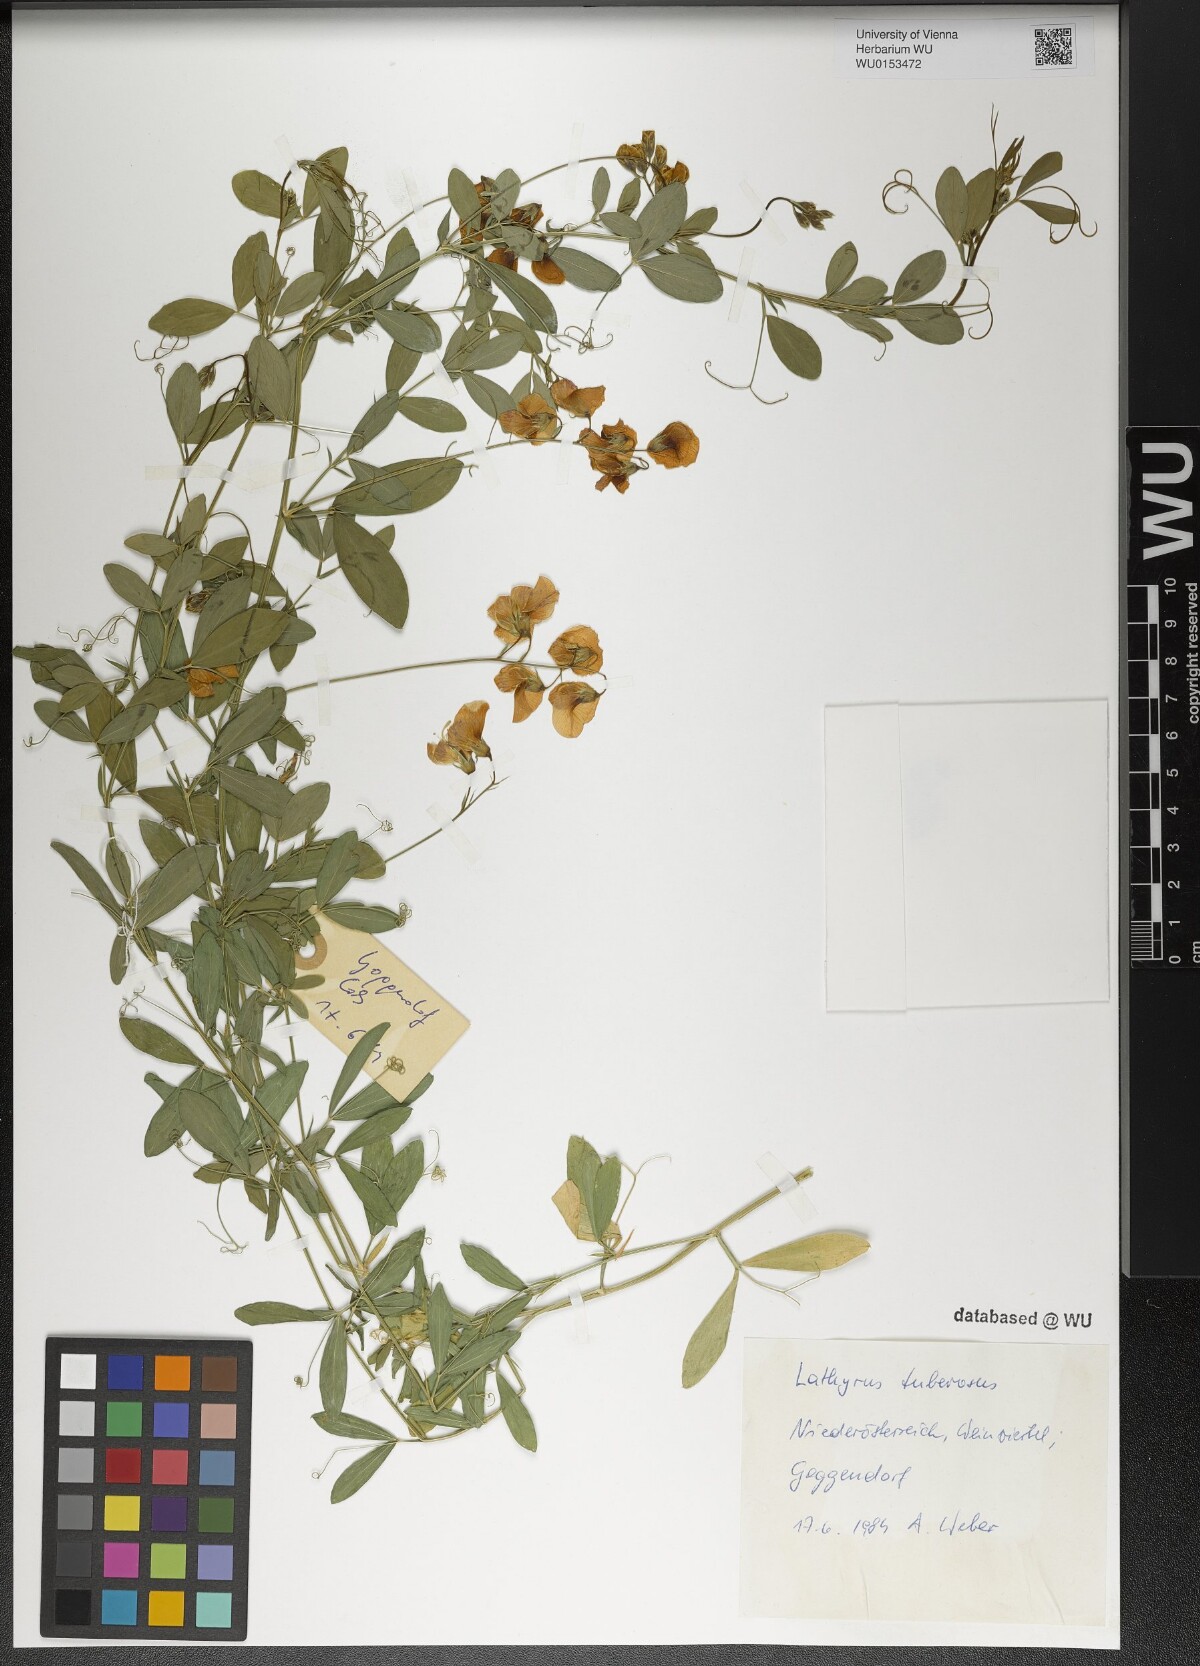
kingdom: Plantae
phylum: Tracheophyta
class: Magnoliopsida
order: Fabales
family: Fabaceae
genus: Lathyrus
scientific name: Lathyrus tuberosus
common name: Tuberous pea
